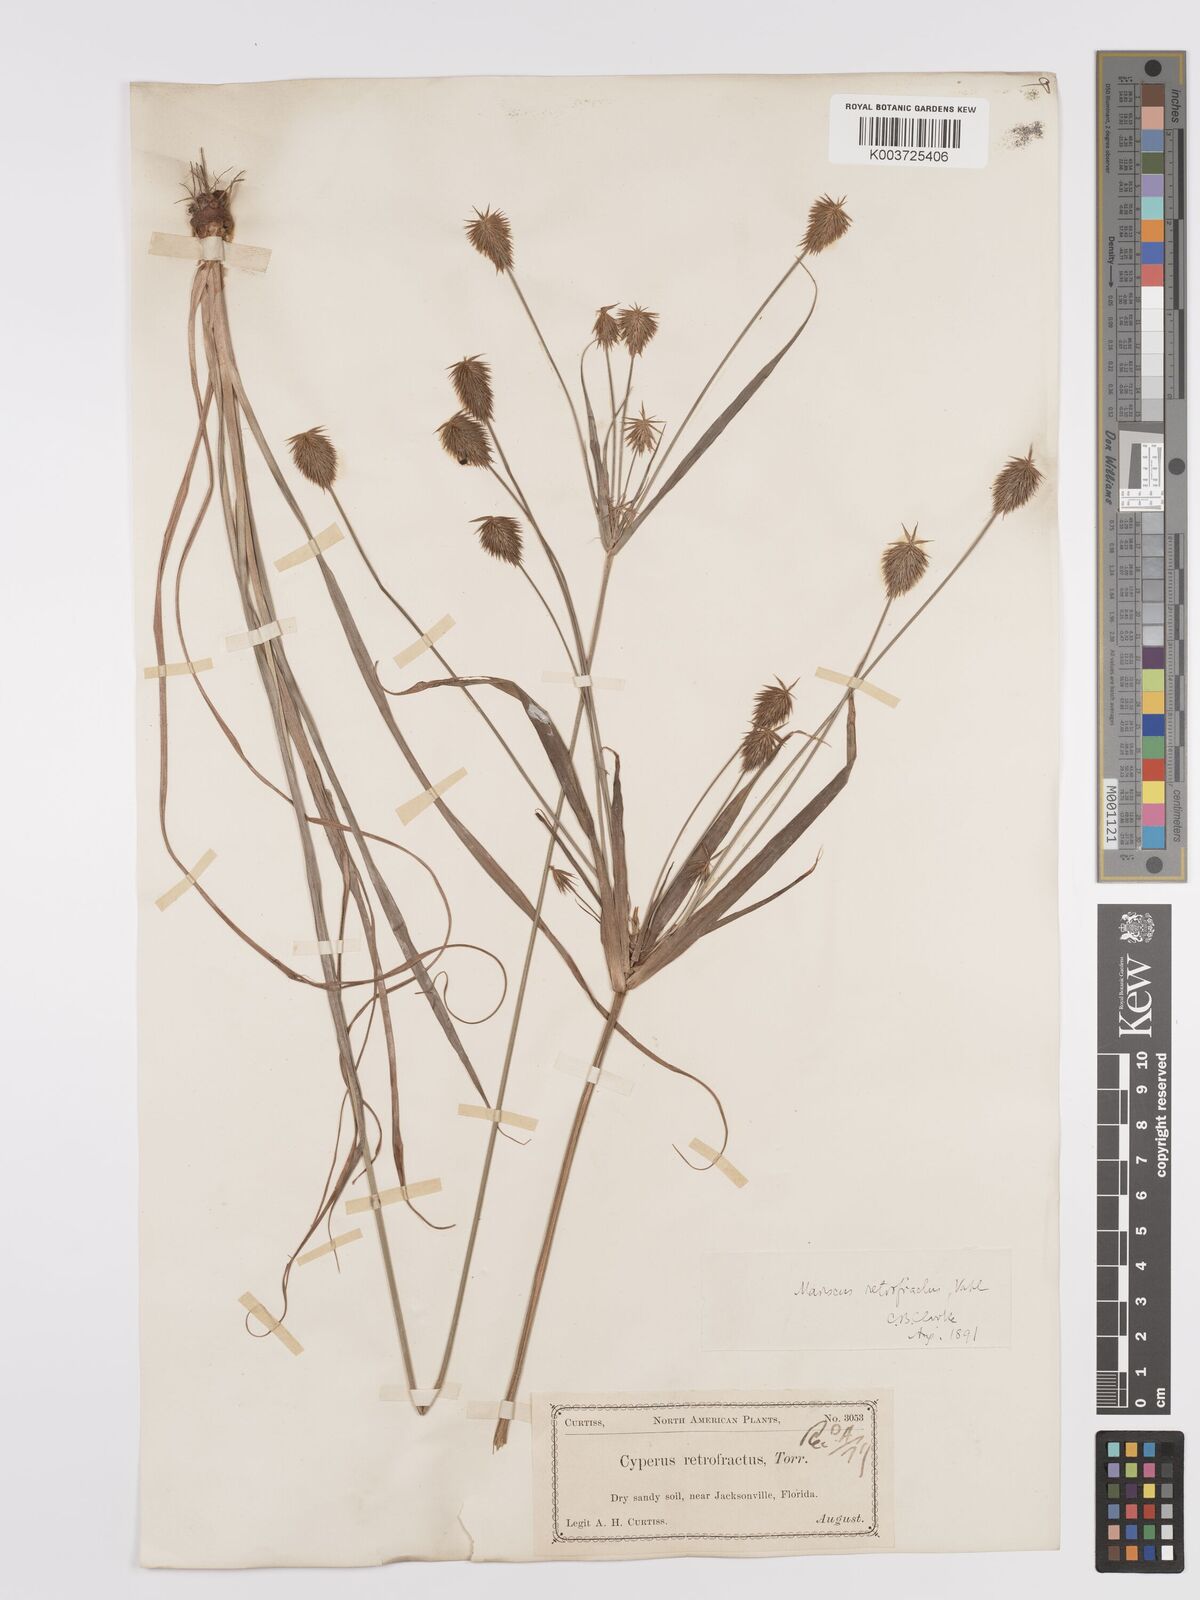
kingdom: Plantae
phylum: Tracheophyta
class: Liliopsida
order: Poales
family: Cyperaceae
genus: Cyperus
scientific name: Cyperus retrofractus
